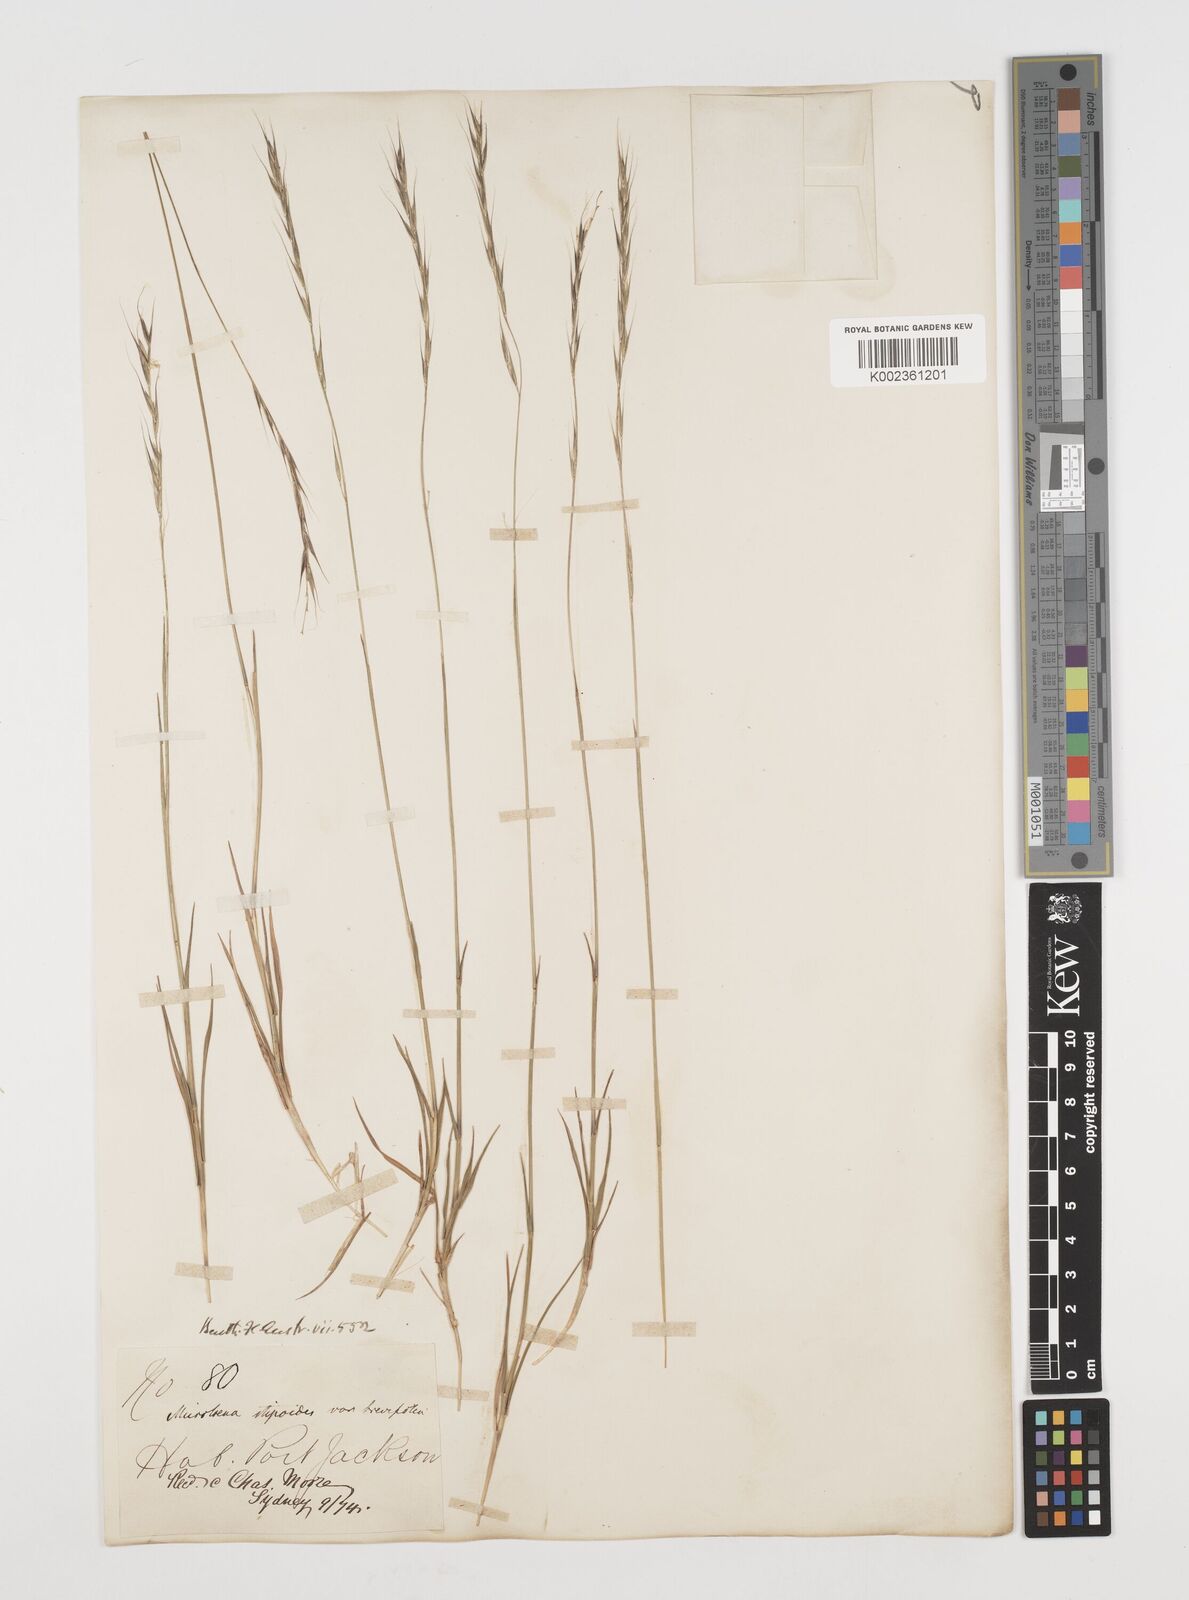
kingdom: Plantae
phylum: Tracheophyta
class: Liliopsida
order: Poales
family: Poaceae
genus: Microlaena
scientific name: Microlaena stipoides
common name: Meadow ricegrass
